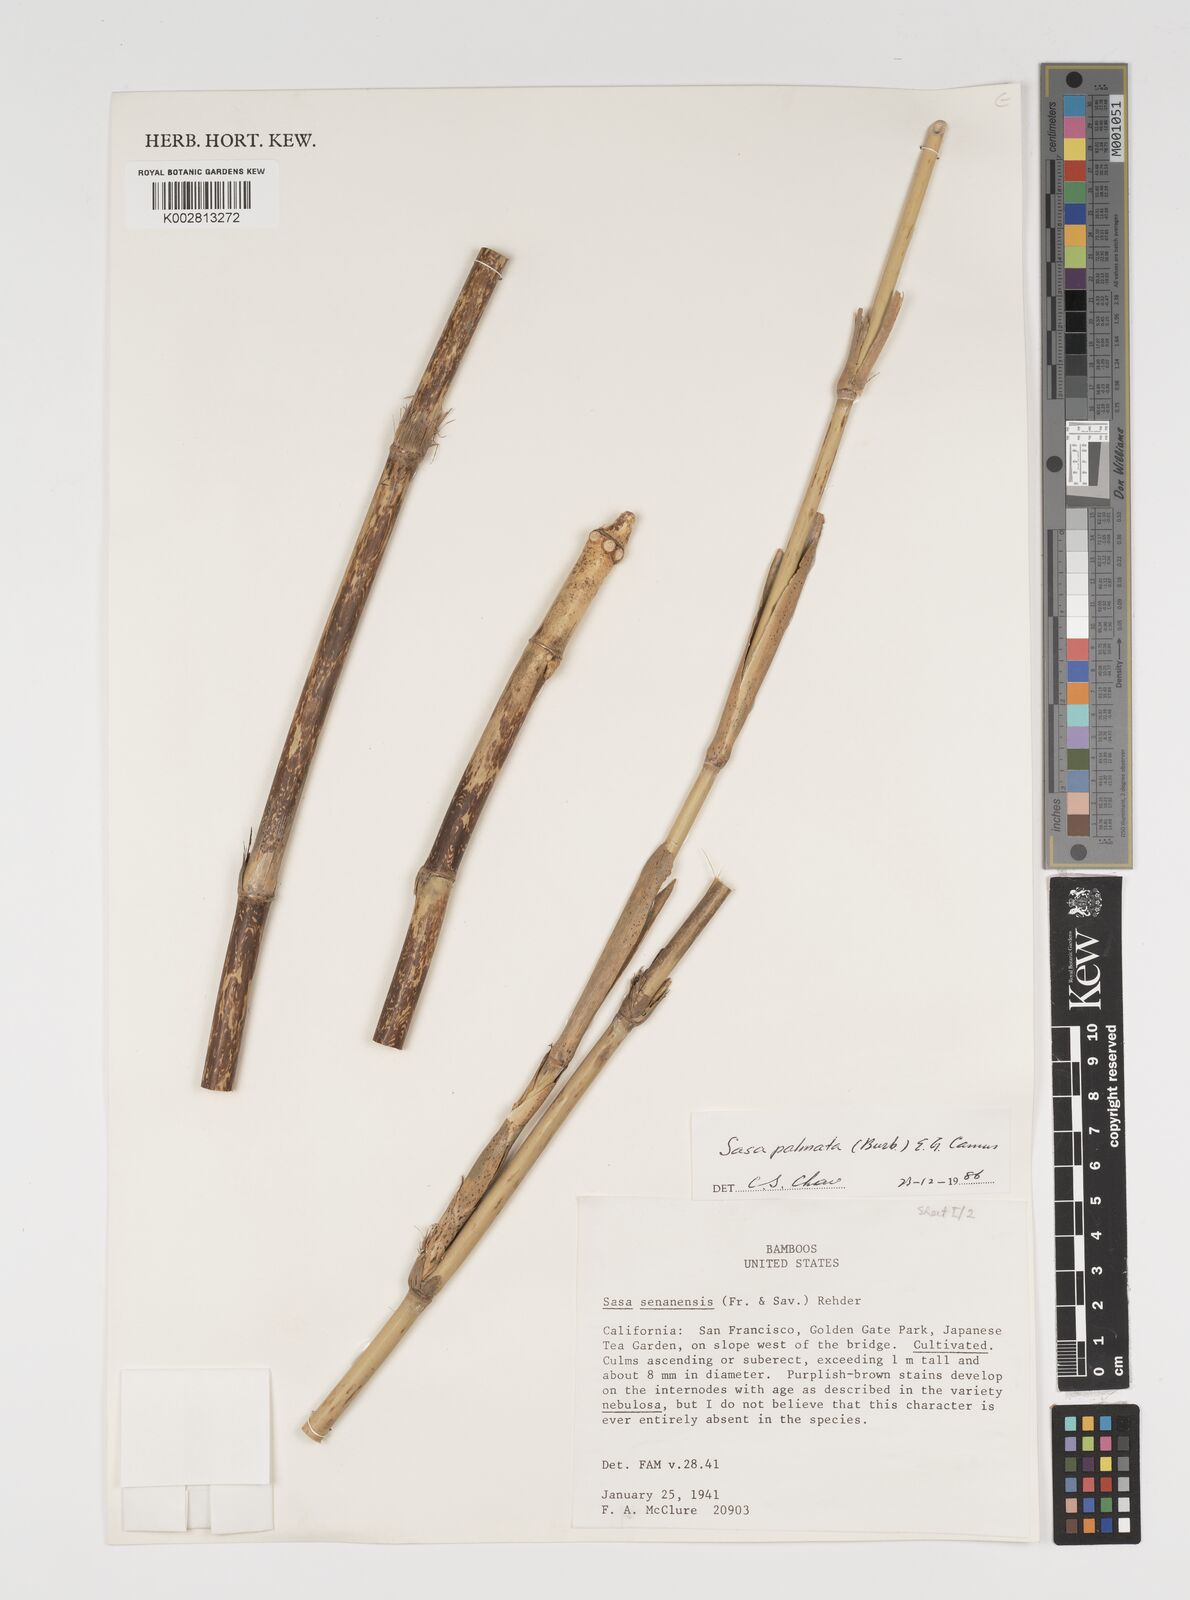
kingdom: Plantae
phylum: Tracheophyta
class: Liliopsida
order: Poales
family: Poaceae
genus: Sasa
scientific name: Sasa senanensis
